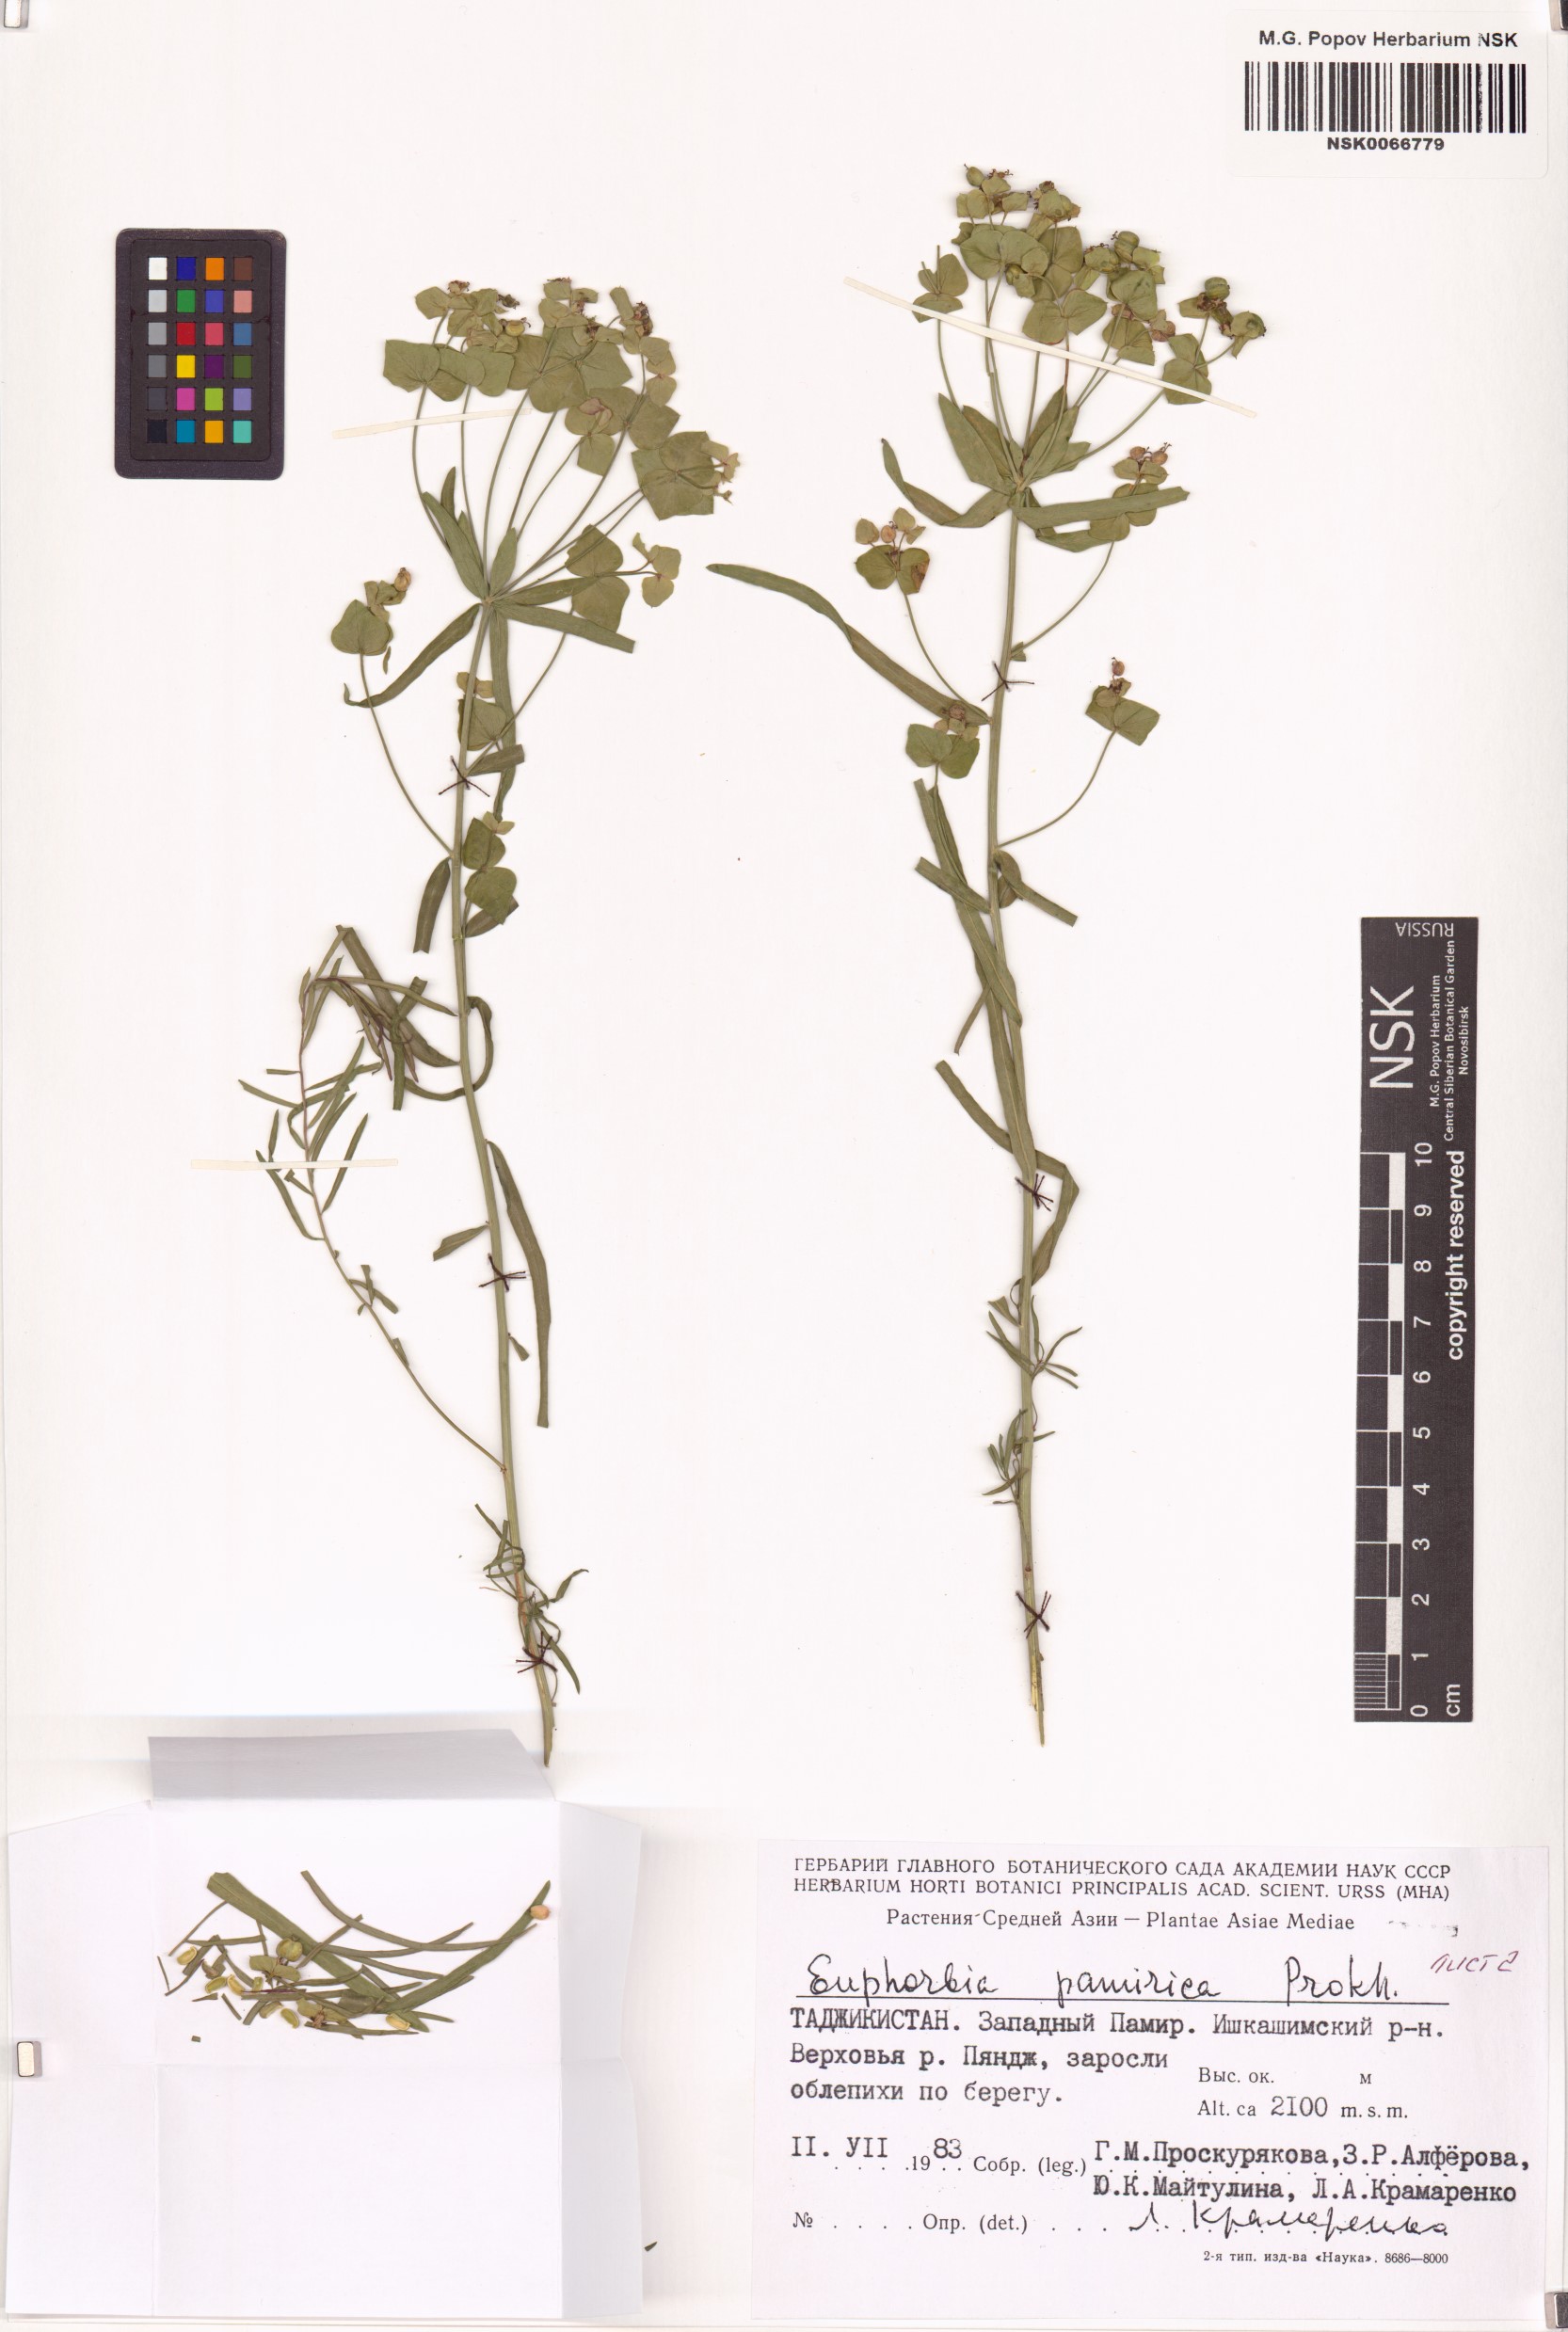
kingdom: Plantae
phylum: Tracheophyta
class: Magnoliopsida
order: Malpighiales
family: Euphorbiaceae
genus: Euphorbia
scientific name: Euphorbia pamirica
